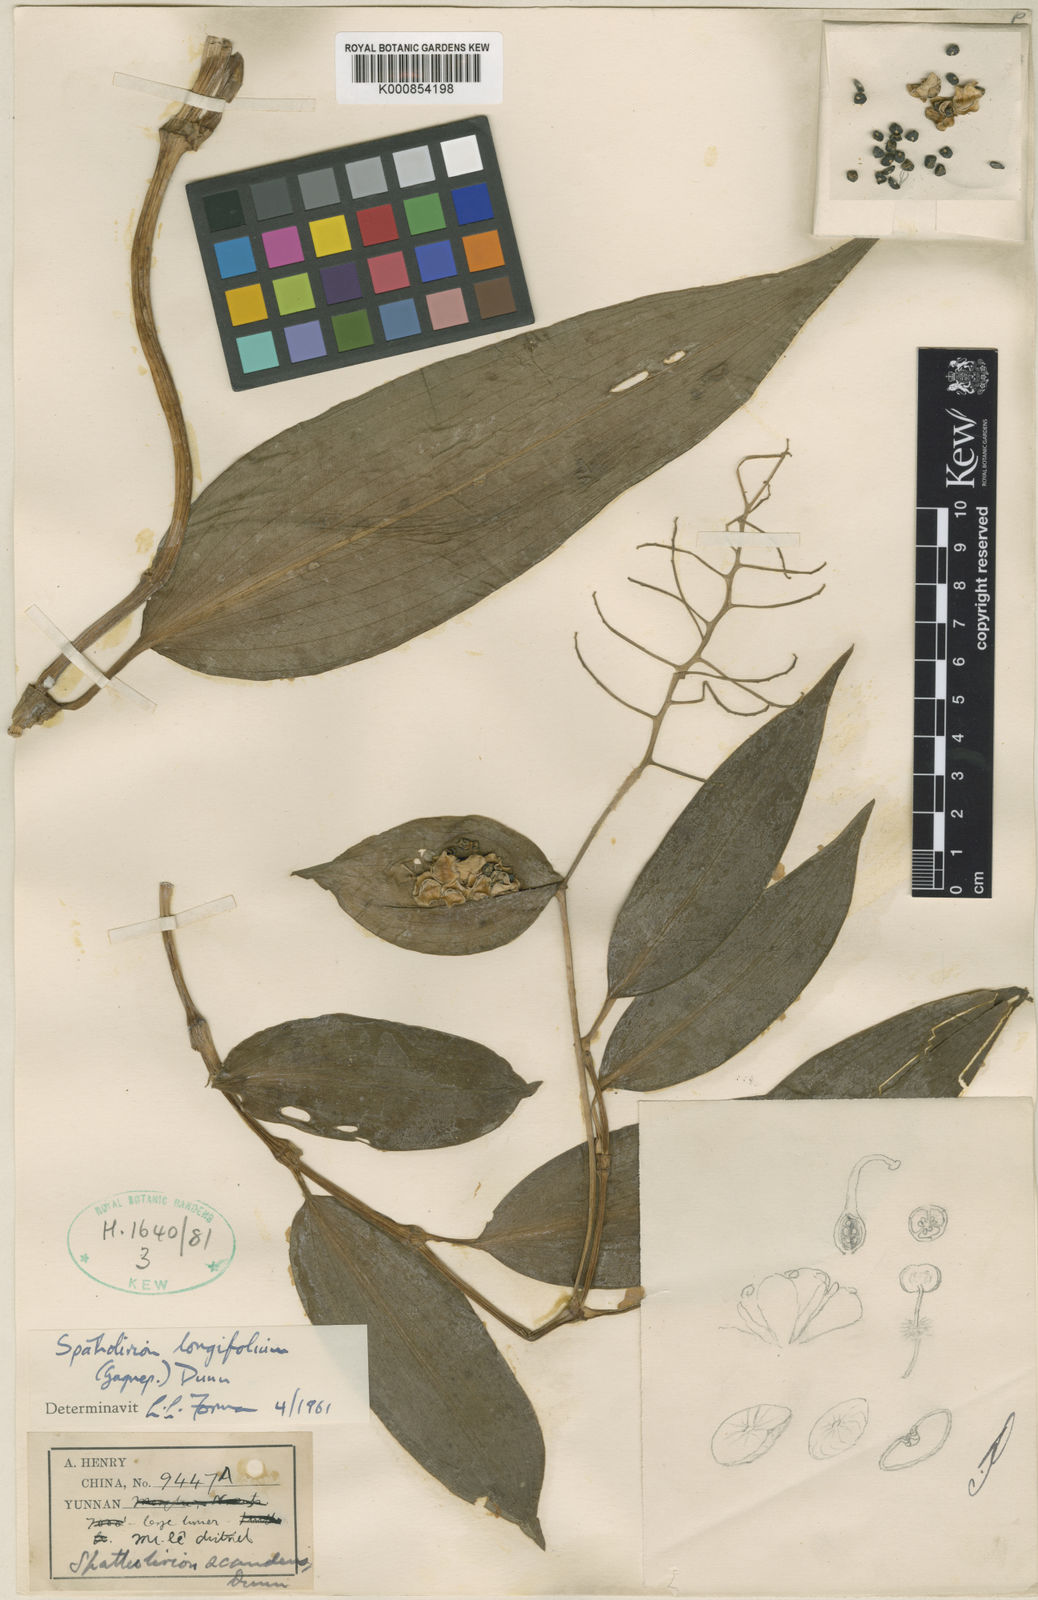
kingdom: Plantae
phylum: Tracheophyta
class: Liliopsida
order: Commelinales
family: Commelinaceae
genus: Spatholirion
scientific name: Spatholirion longifolium
